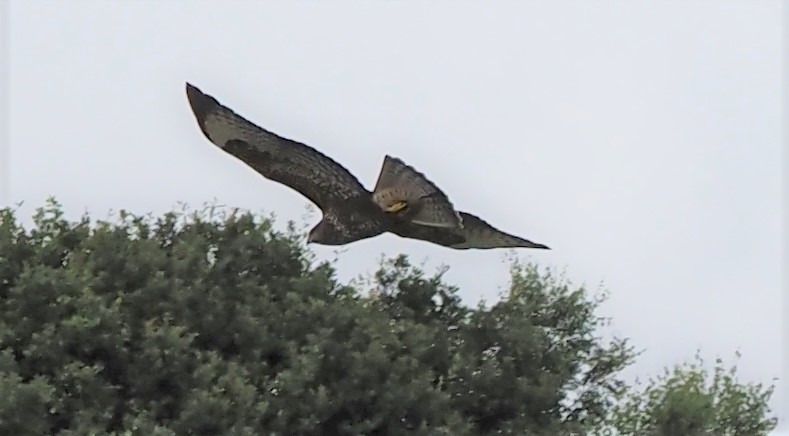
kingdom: Animalia
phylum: Chordata
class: Aves
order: Accipitriformes
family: Accipitridae
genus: Buteo
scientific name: Buteo buteo
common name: Musvåge
